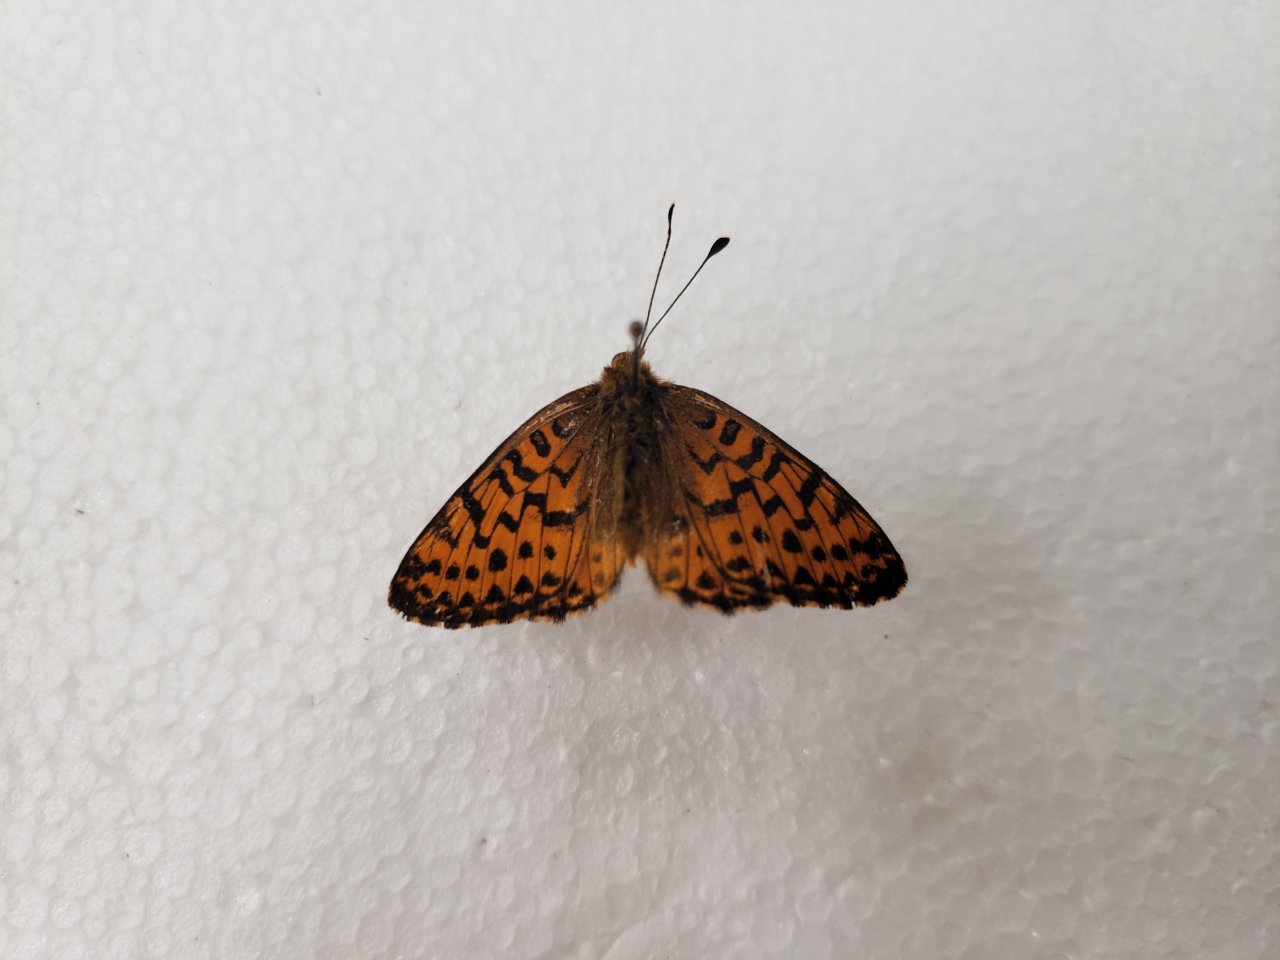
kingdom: Animalia
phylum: Arthropoda
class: Insecta
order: Lepidoptera
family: Nymphalidae
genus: Boloria
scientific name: Boloria chariclea
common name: Arctic Fritillary
